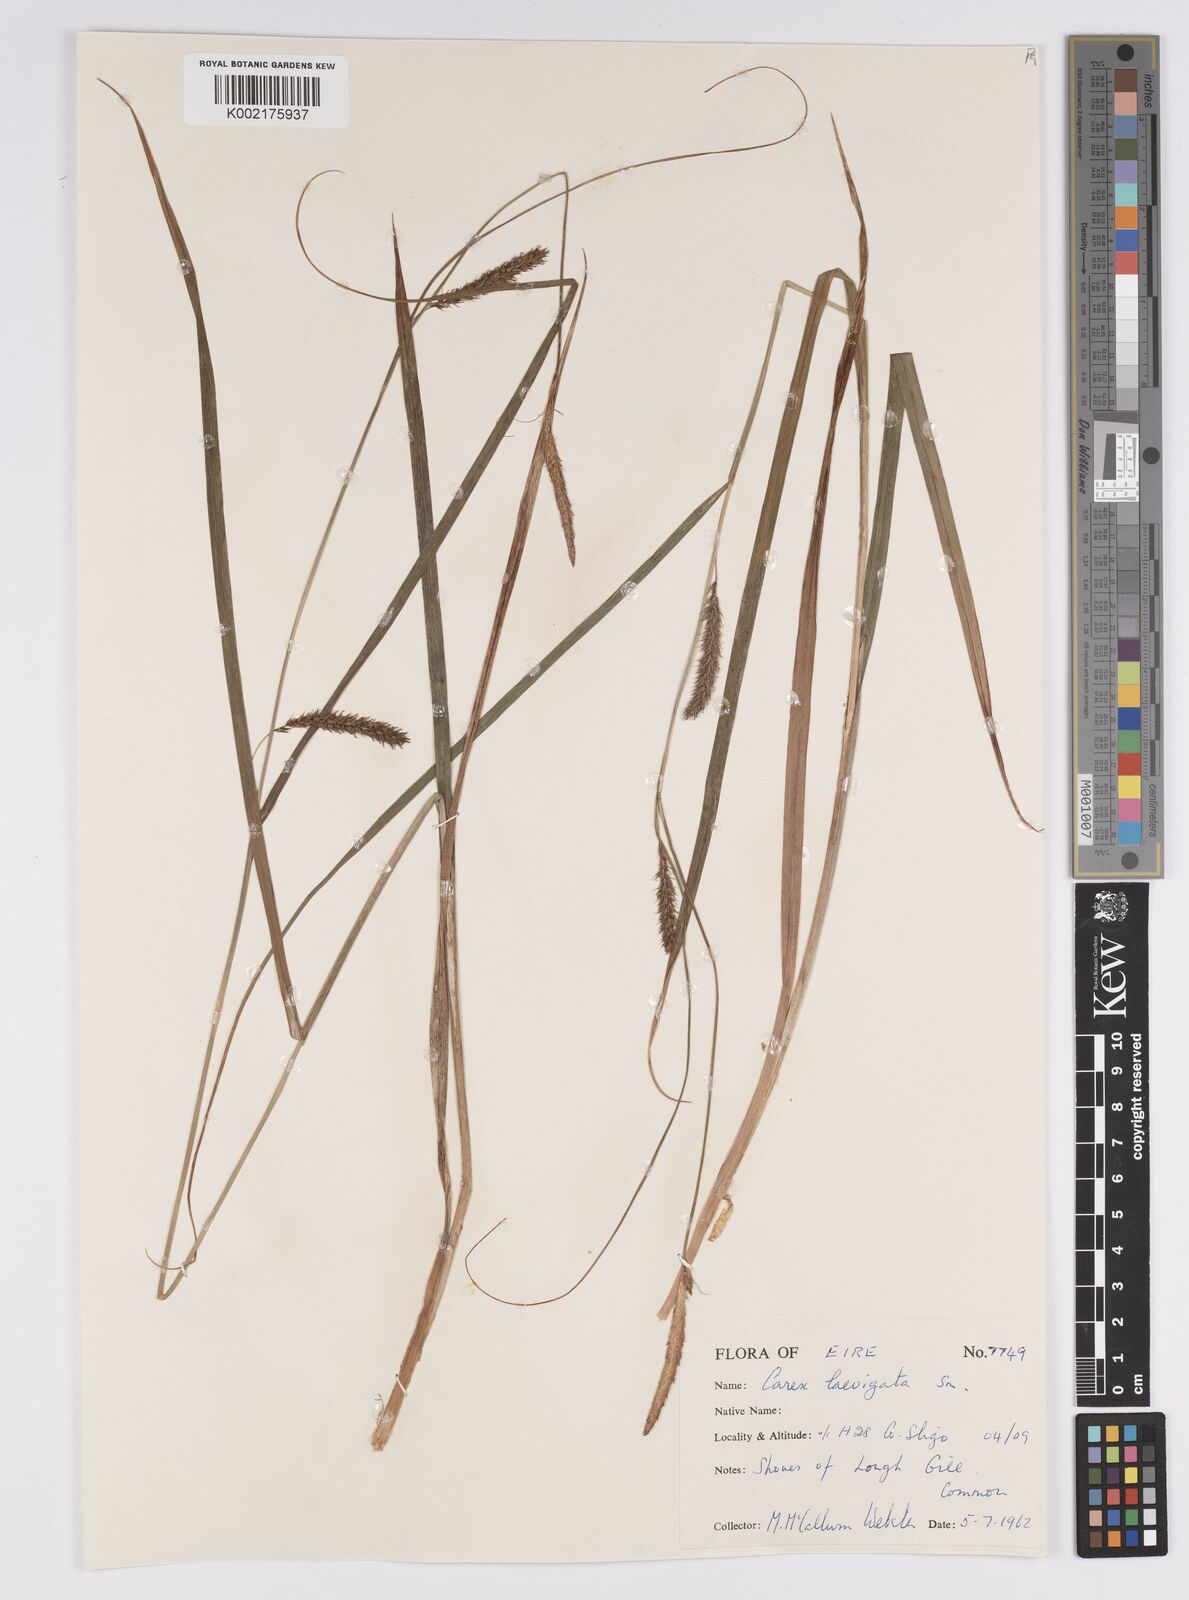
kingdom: Plantae
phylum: Tracheophyta
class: Liliopsida
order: Poales
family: Cyperaceae
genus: Carex
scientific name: Carex laevigata
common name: Smooth-stalked sedge
